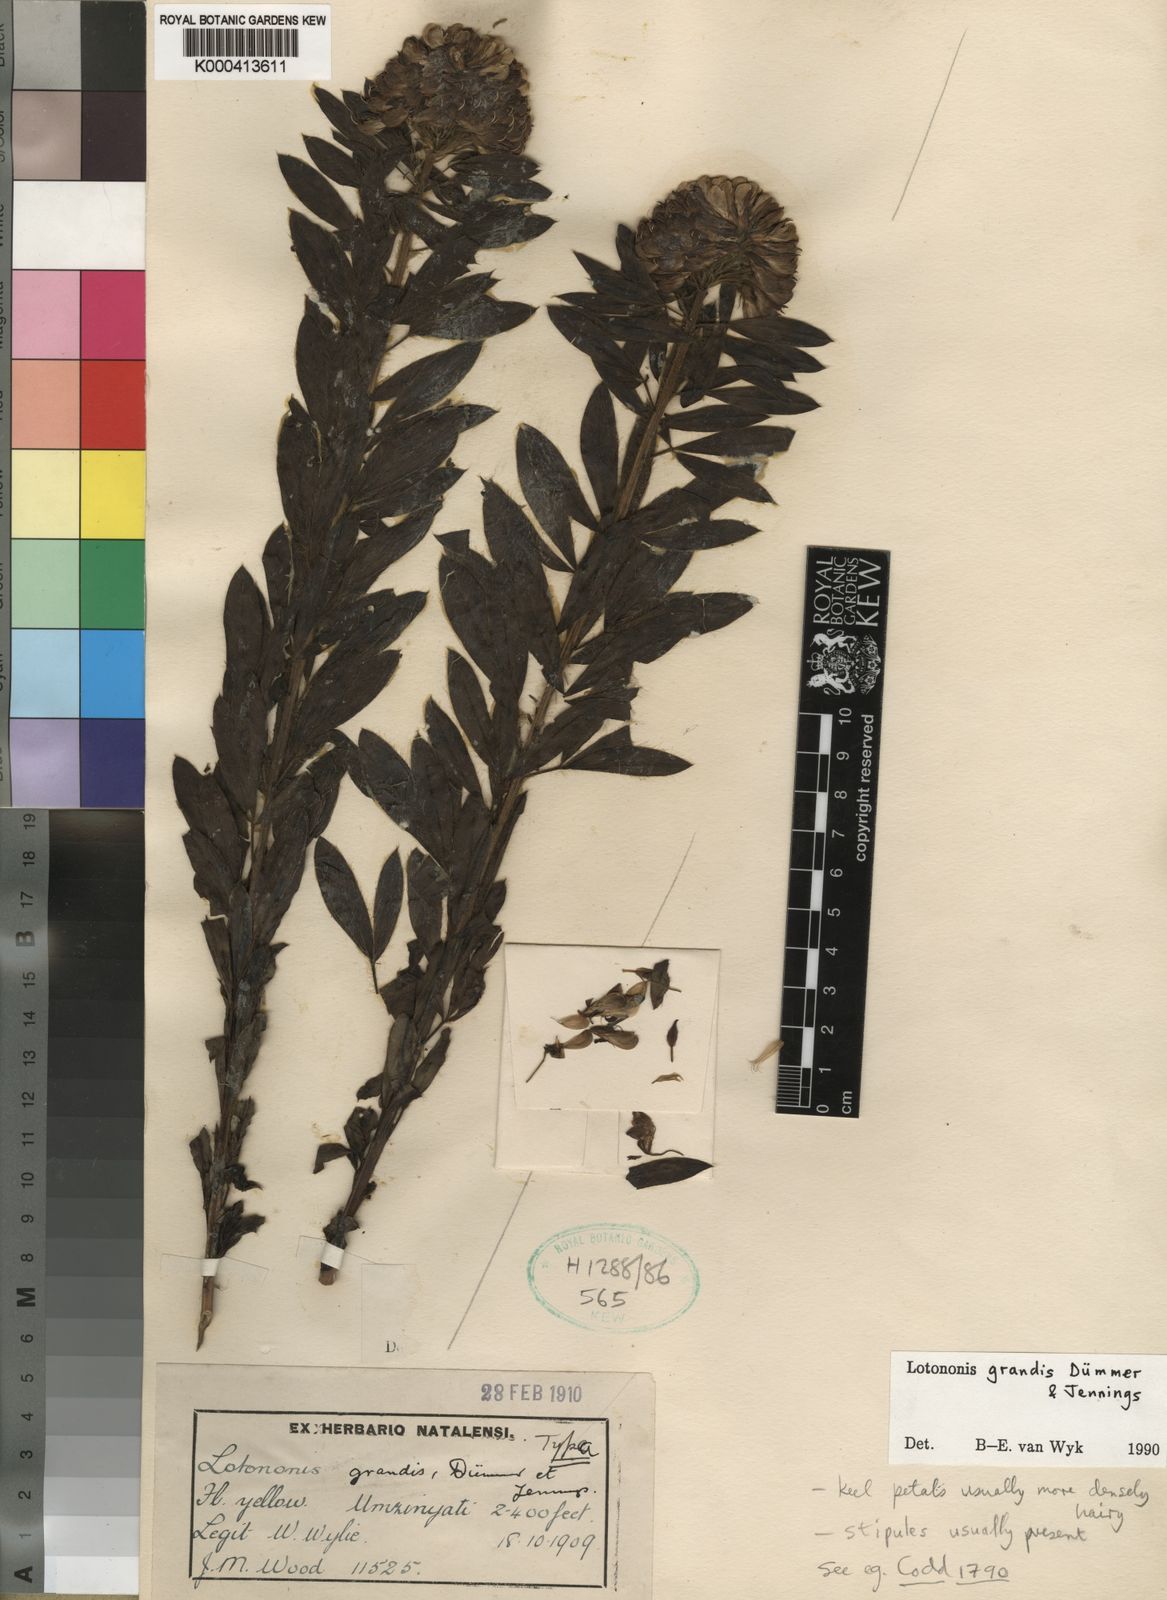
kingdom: Plantae
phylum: Tracheophyta
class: Magnoliopsida
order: Fabales
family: Fabaceae
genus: Leobordea
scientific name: Leobordea grandis
